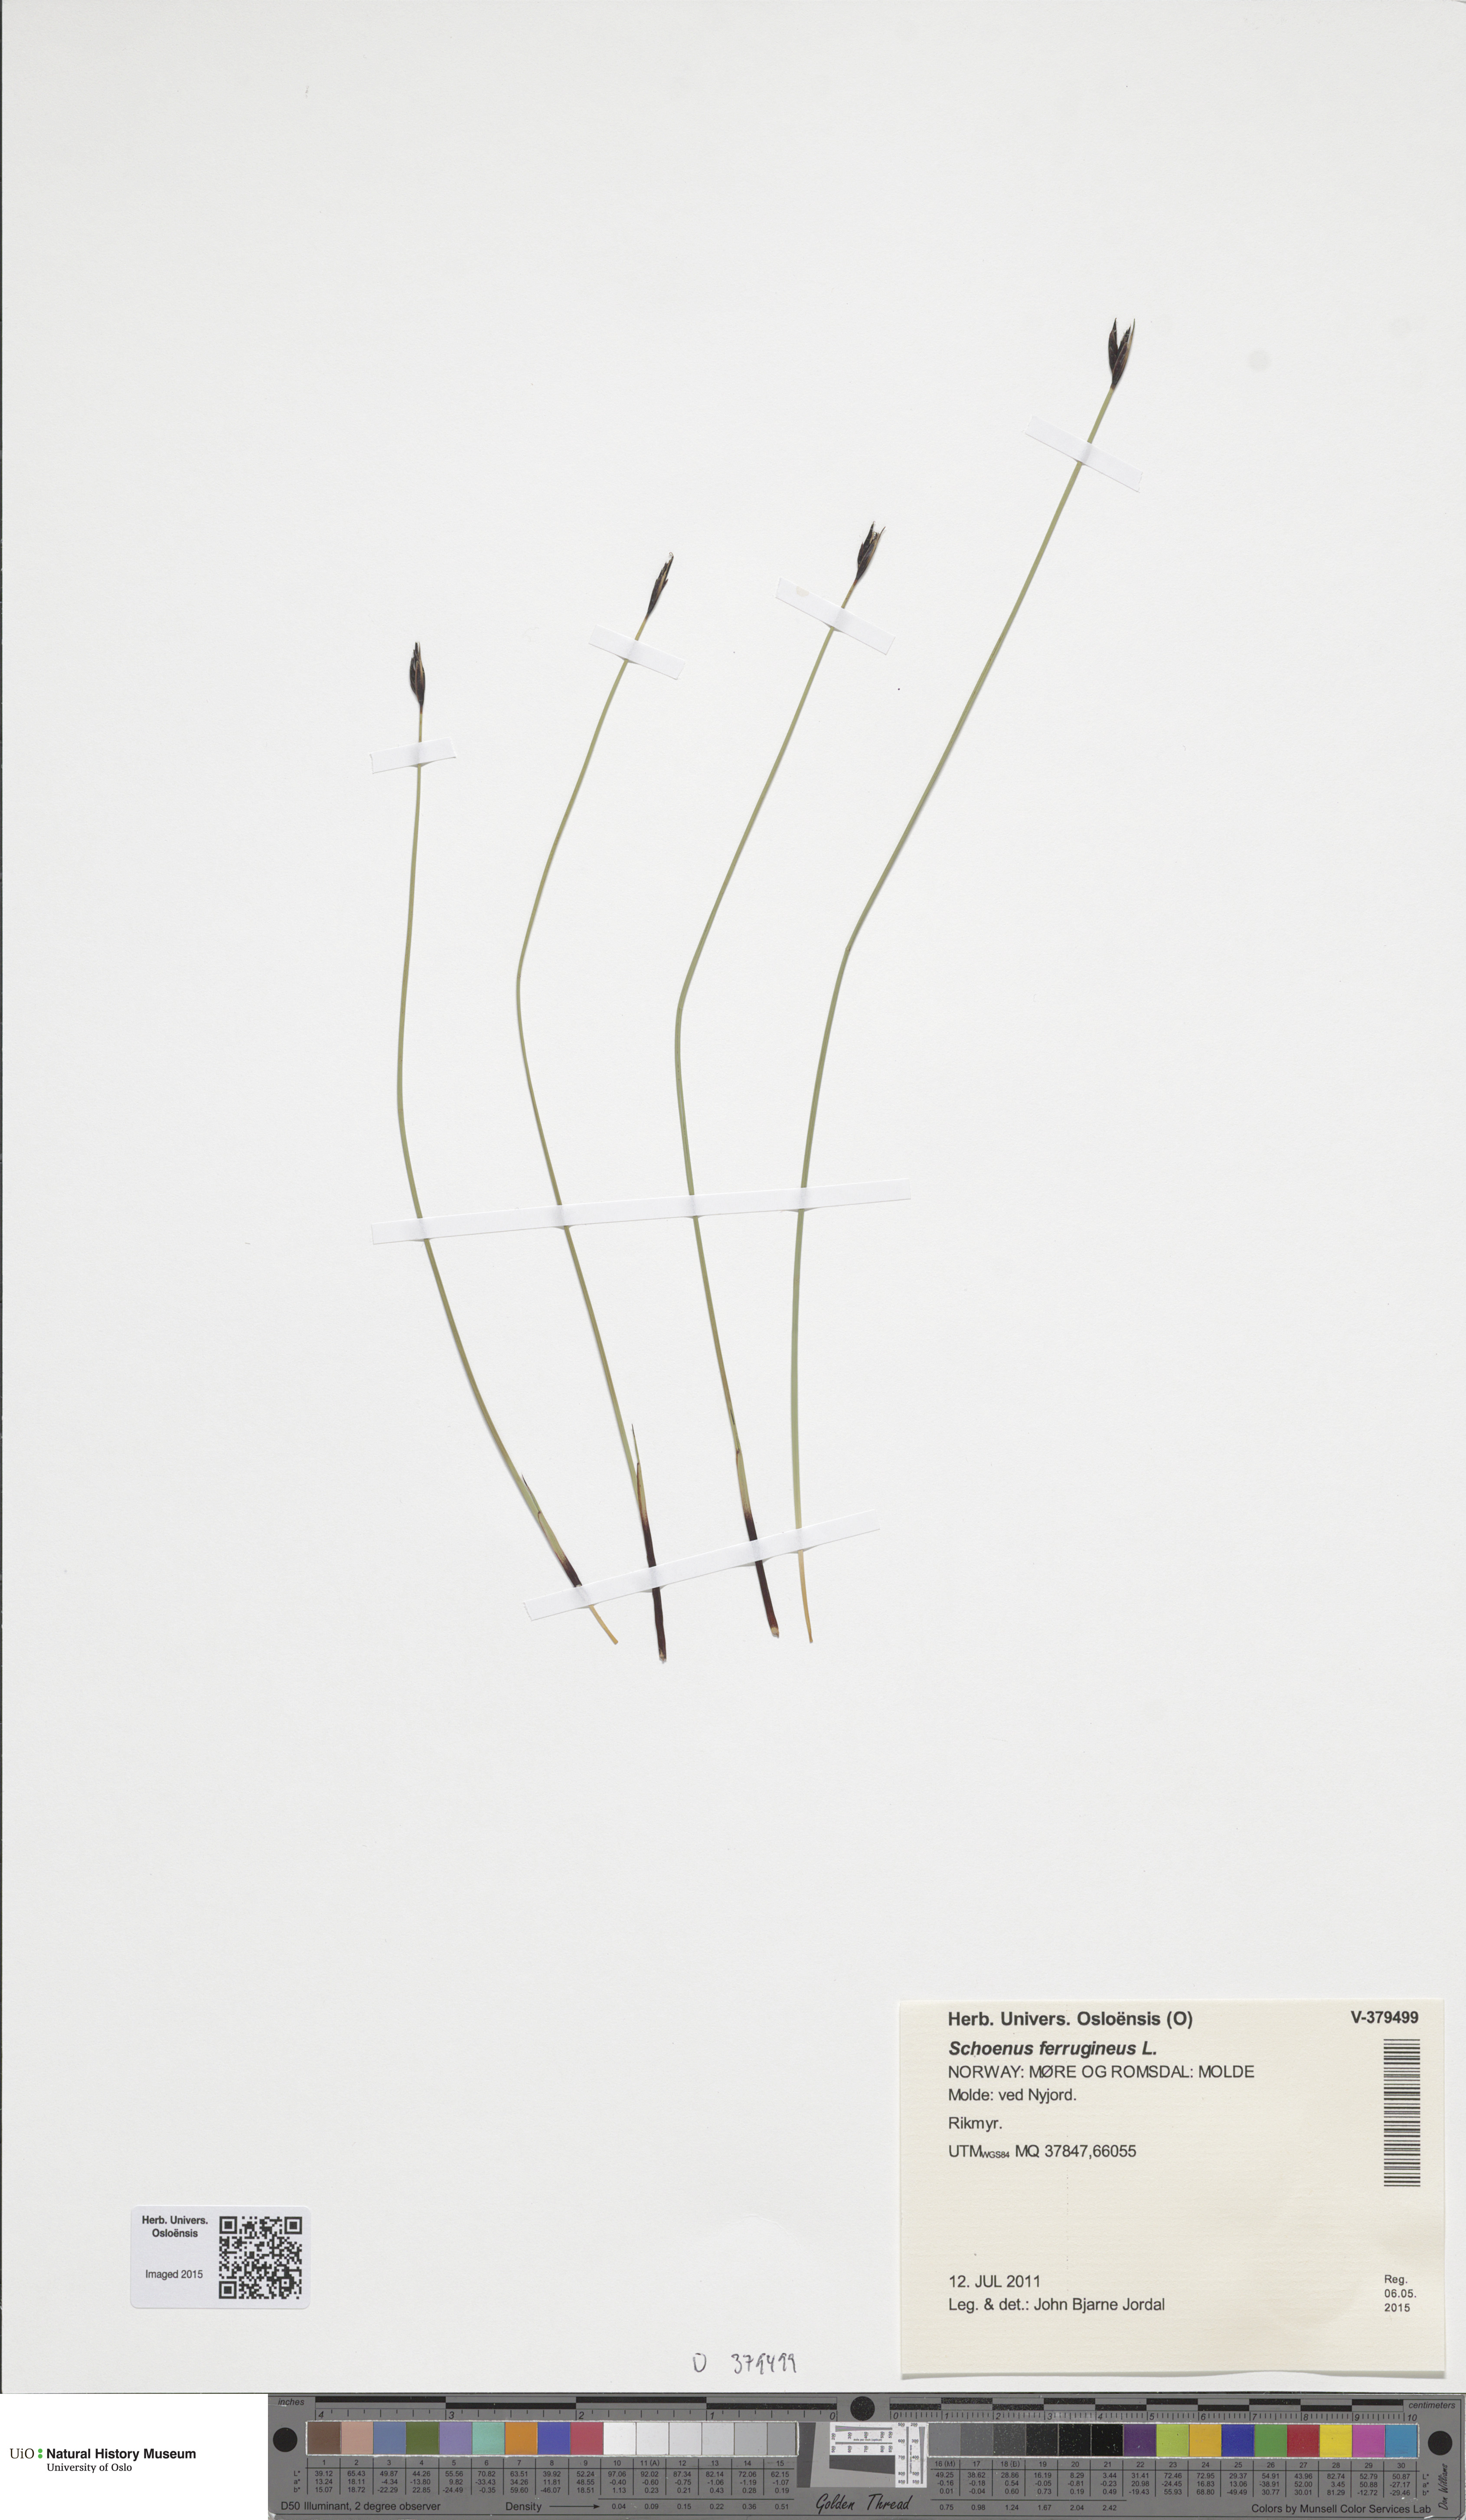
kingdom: Plantae
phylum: Tracheophyta
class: Liliopsida
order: Poales
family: Cyperaceae
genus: Schoenus
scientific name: Schoenus ferrugineus
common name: Brown bog-rush
